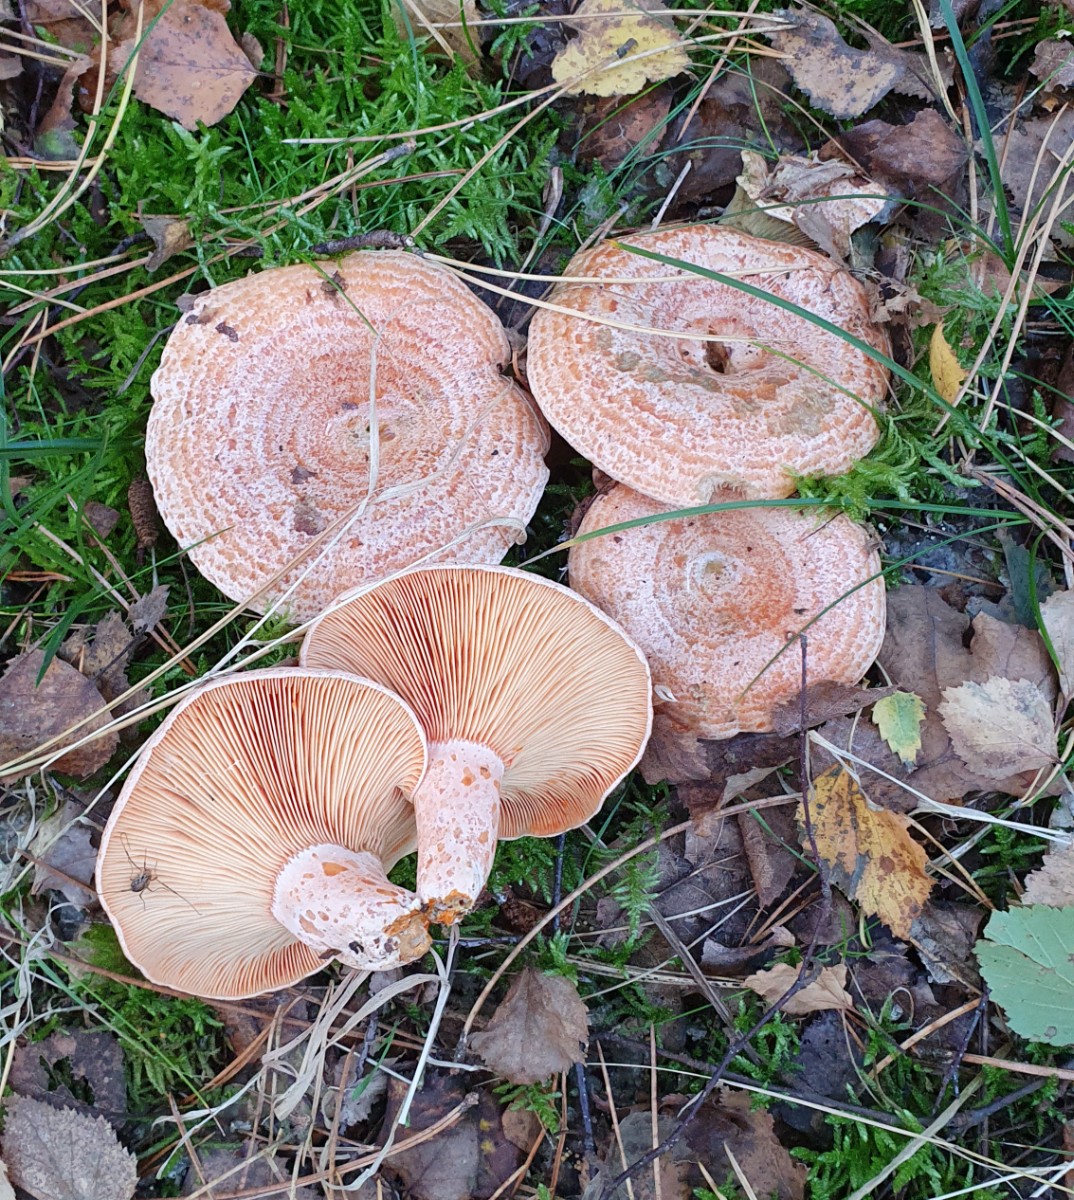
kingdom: Fungi
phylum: Basidiomycota
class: Agaricomycetes
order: Russulales
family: Russulaceae
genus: Lactarius
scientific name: Lactarius deliciosus
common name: velsmagende mælkehat
